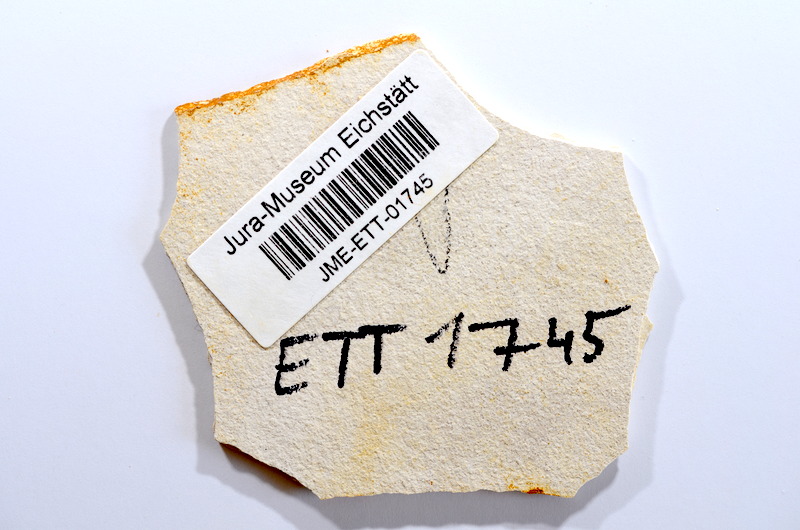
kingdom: Animalia
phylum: Chordata
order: Salmoniformes
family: Orthogonikleithridae
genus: Orthogonikleithrus
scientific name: Orthogonikleithrus hoelli
